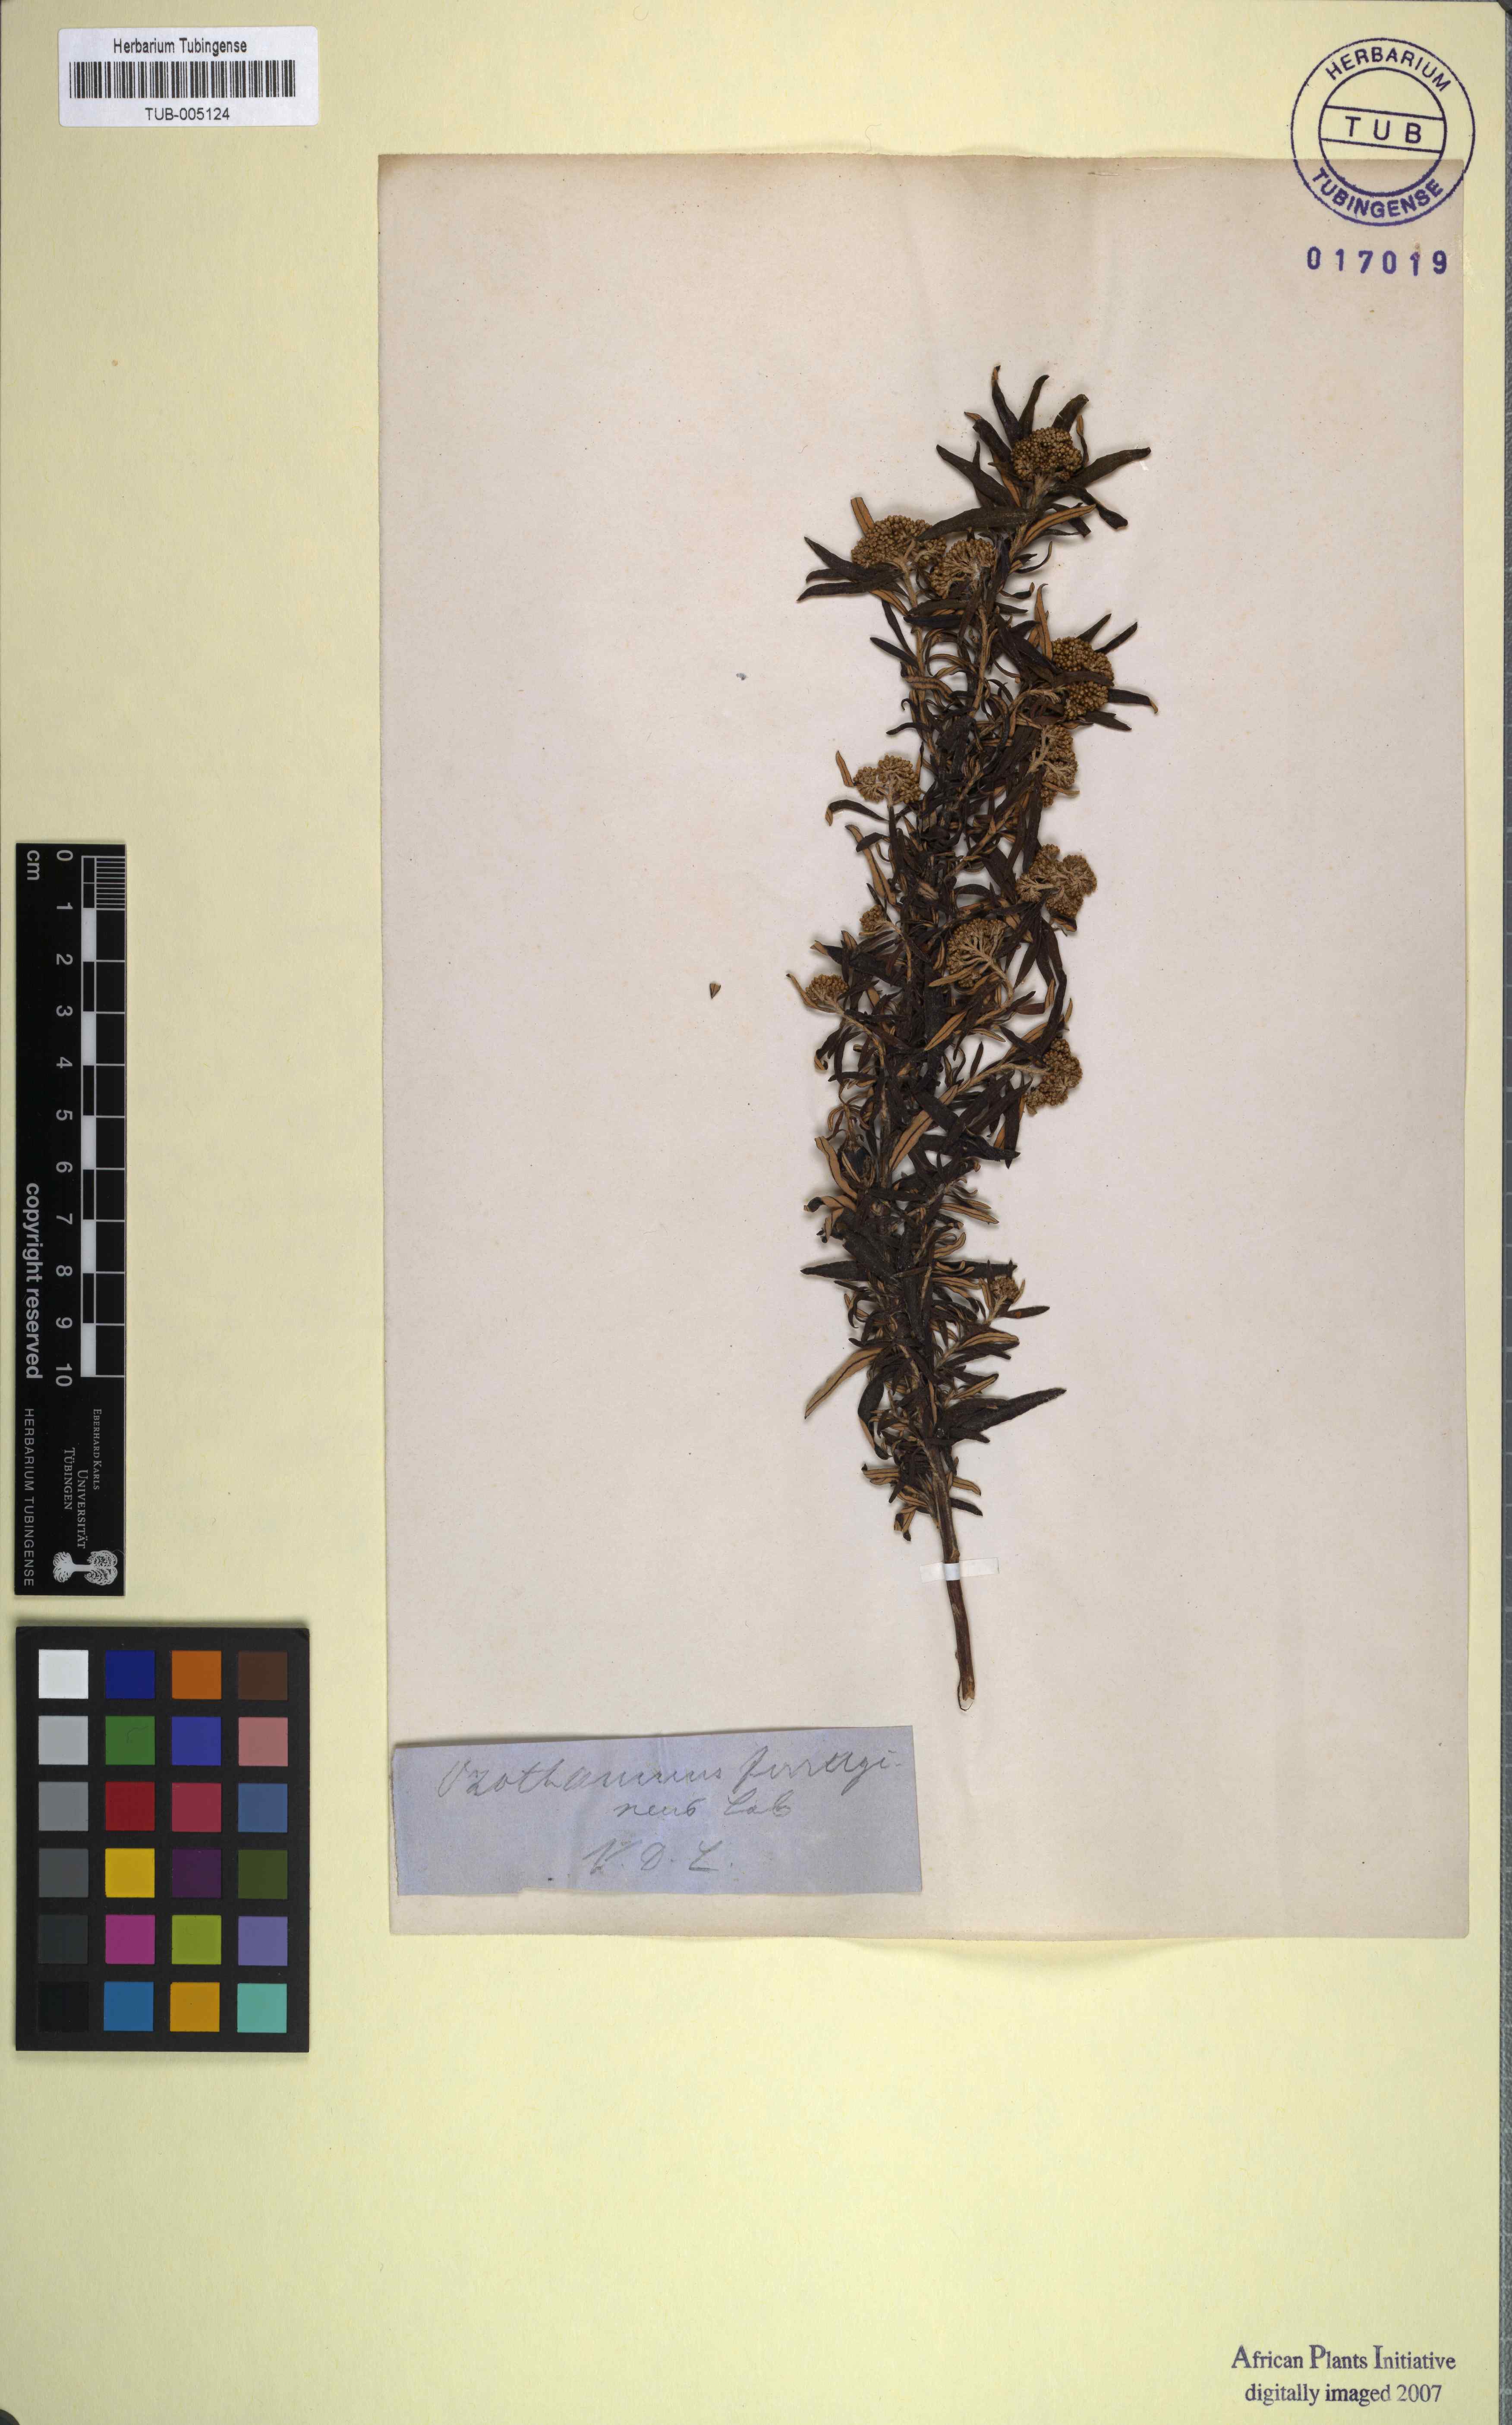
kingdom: Plantae
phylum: Tracheophyta
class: Magnoliopsida
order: Asterales
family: Asteraceae
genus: Achyranthemum
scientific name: Achyranthemum affine
